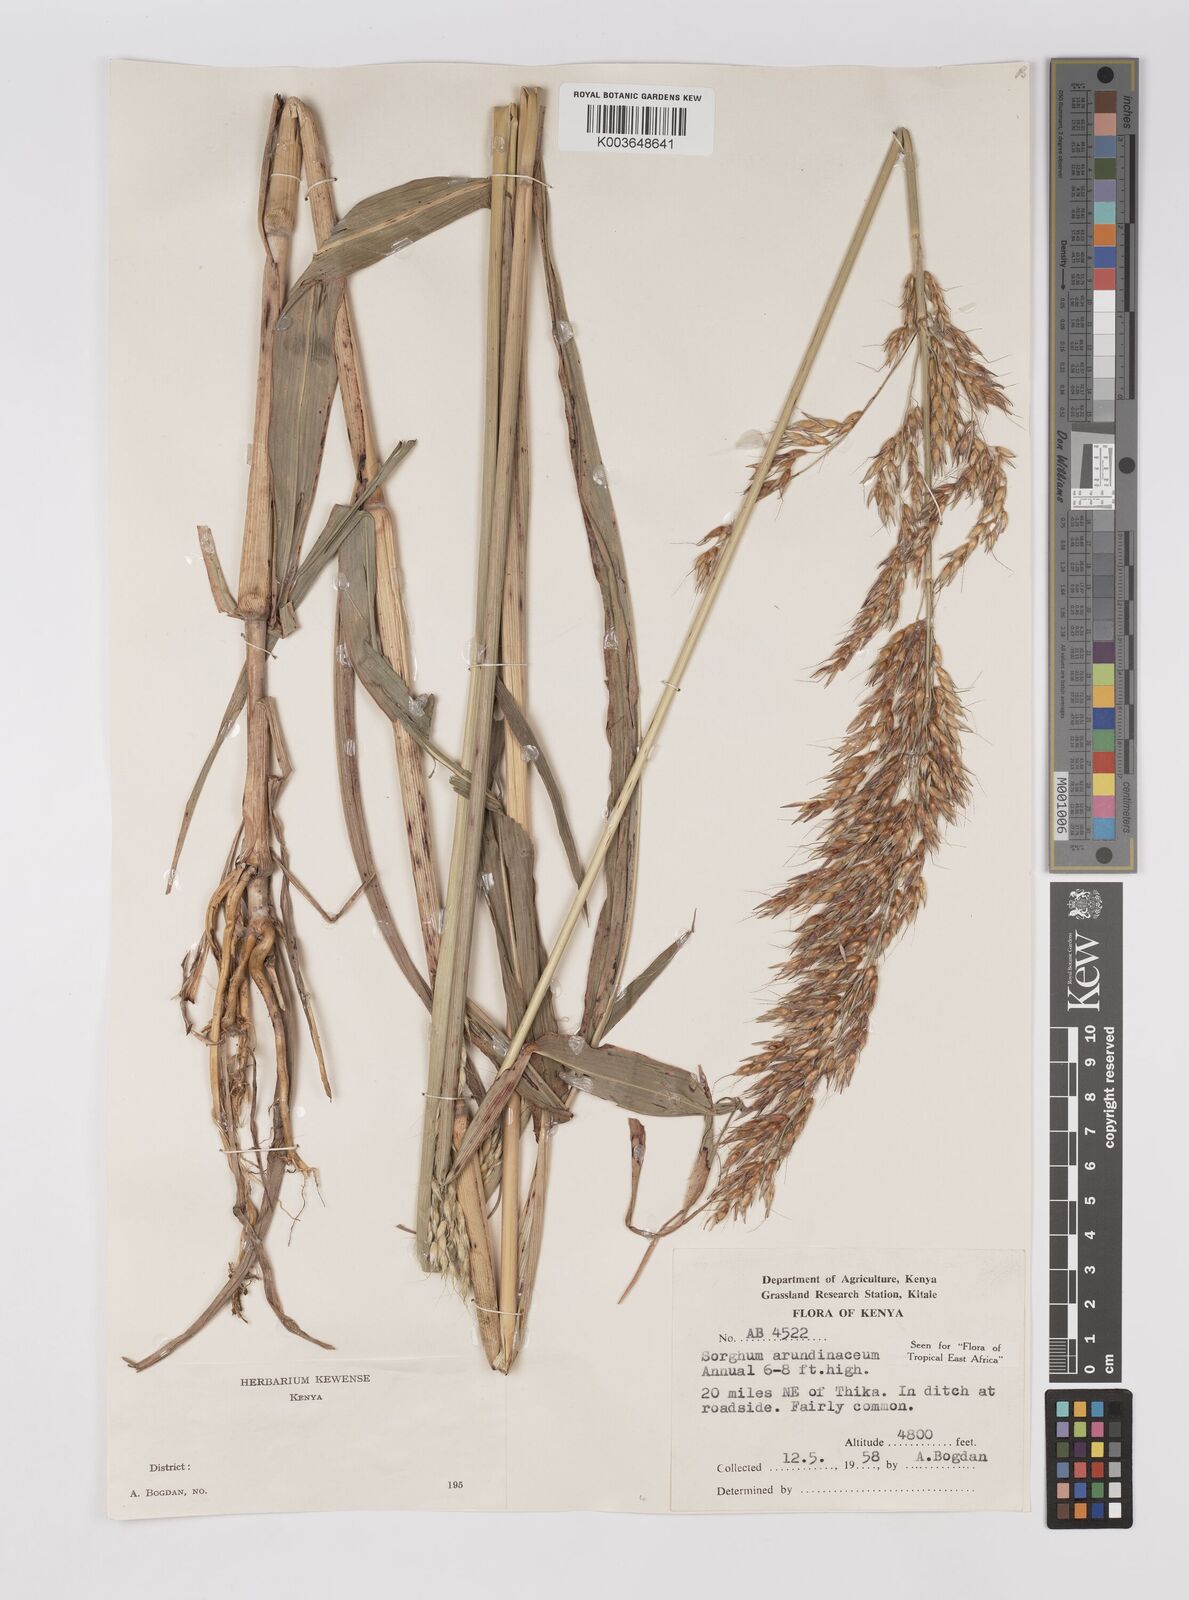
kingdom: Plantae
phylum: Tracheophyta
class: Liliopsida
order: Poales
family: Poaceae
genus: Sorghum
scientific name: Sorghum arundinaceum
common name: Sorghum
